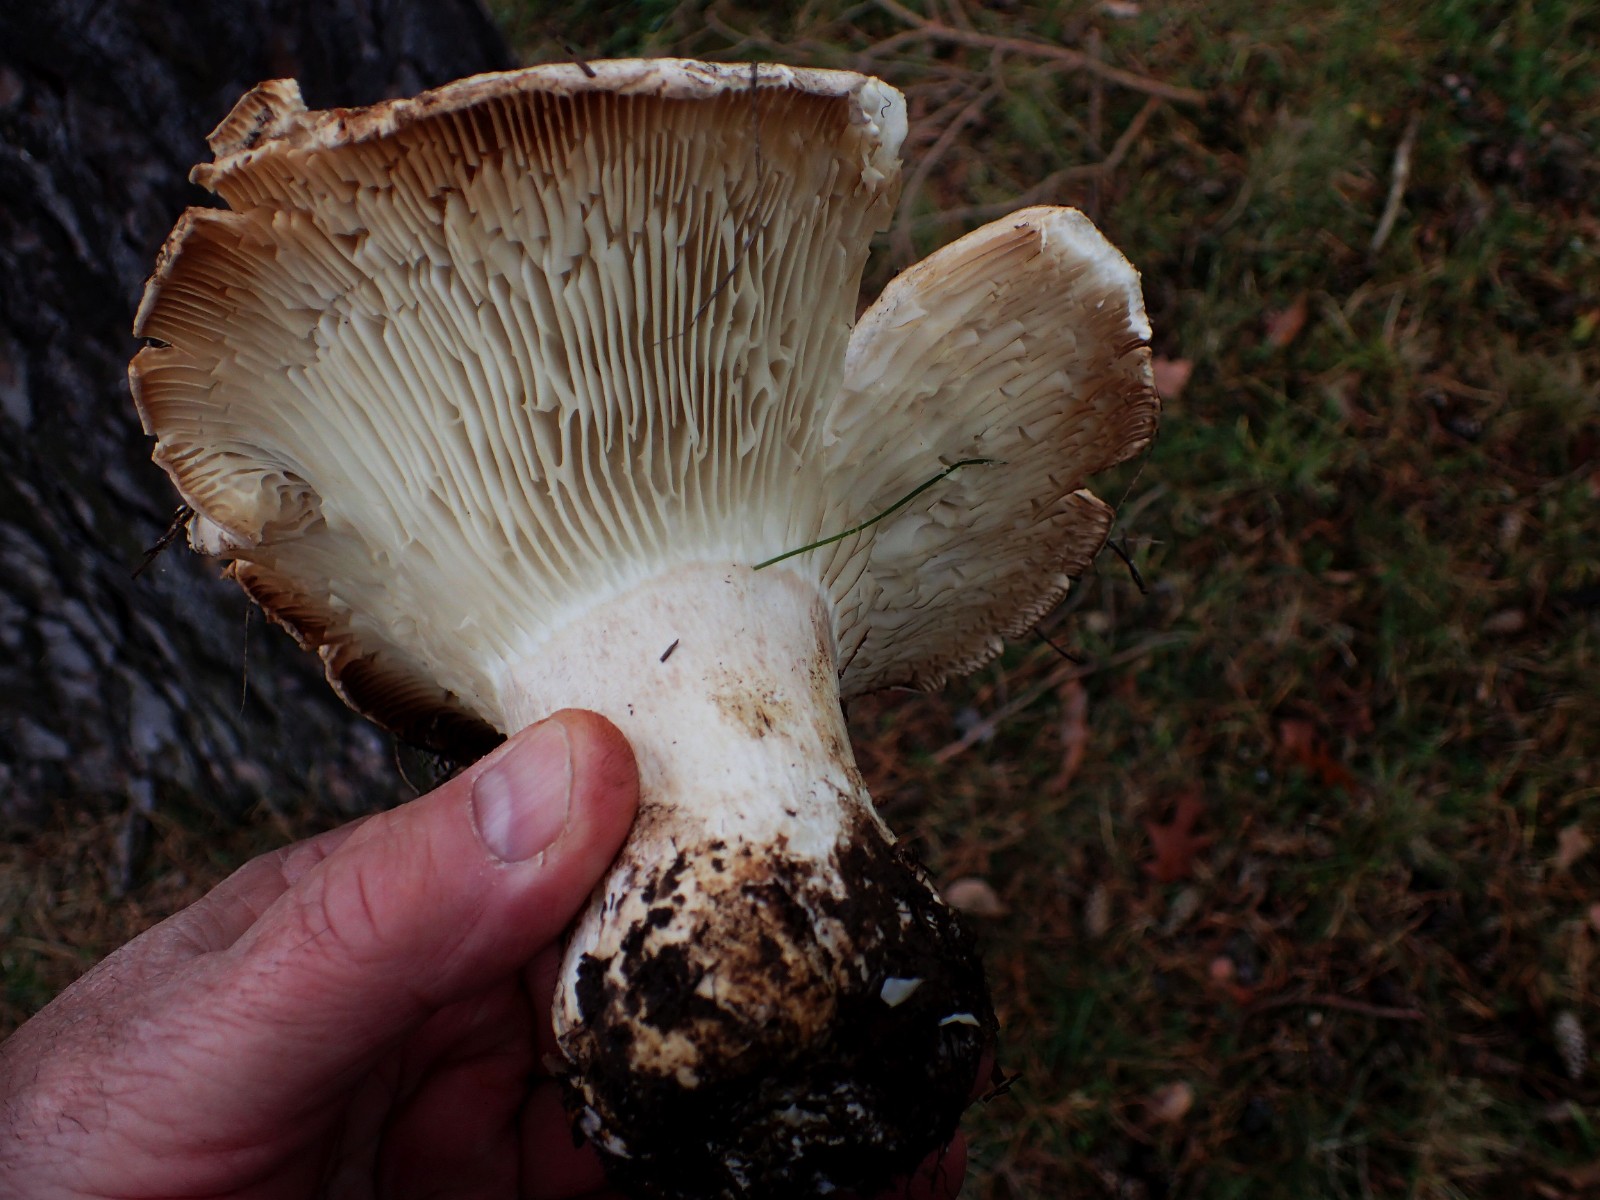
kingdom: Fungi
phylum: Basidiomycota
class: Agaricomycetes
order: Russulales
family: Russulaceae
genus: Russula
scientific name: Russula chloroides
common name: grønhalset tragt-skørhat
